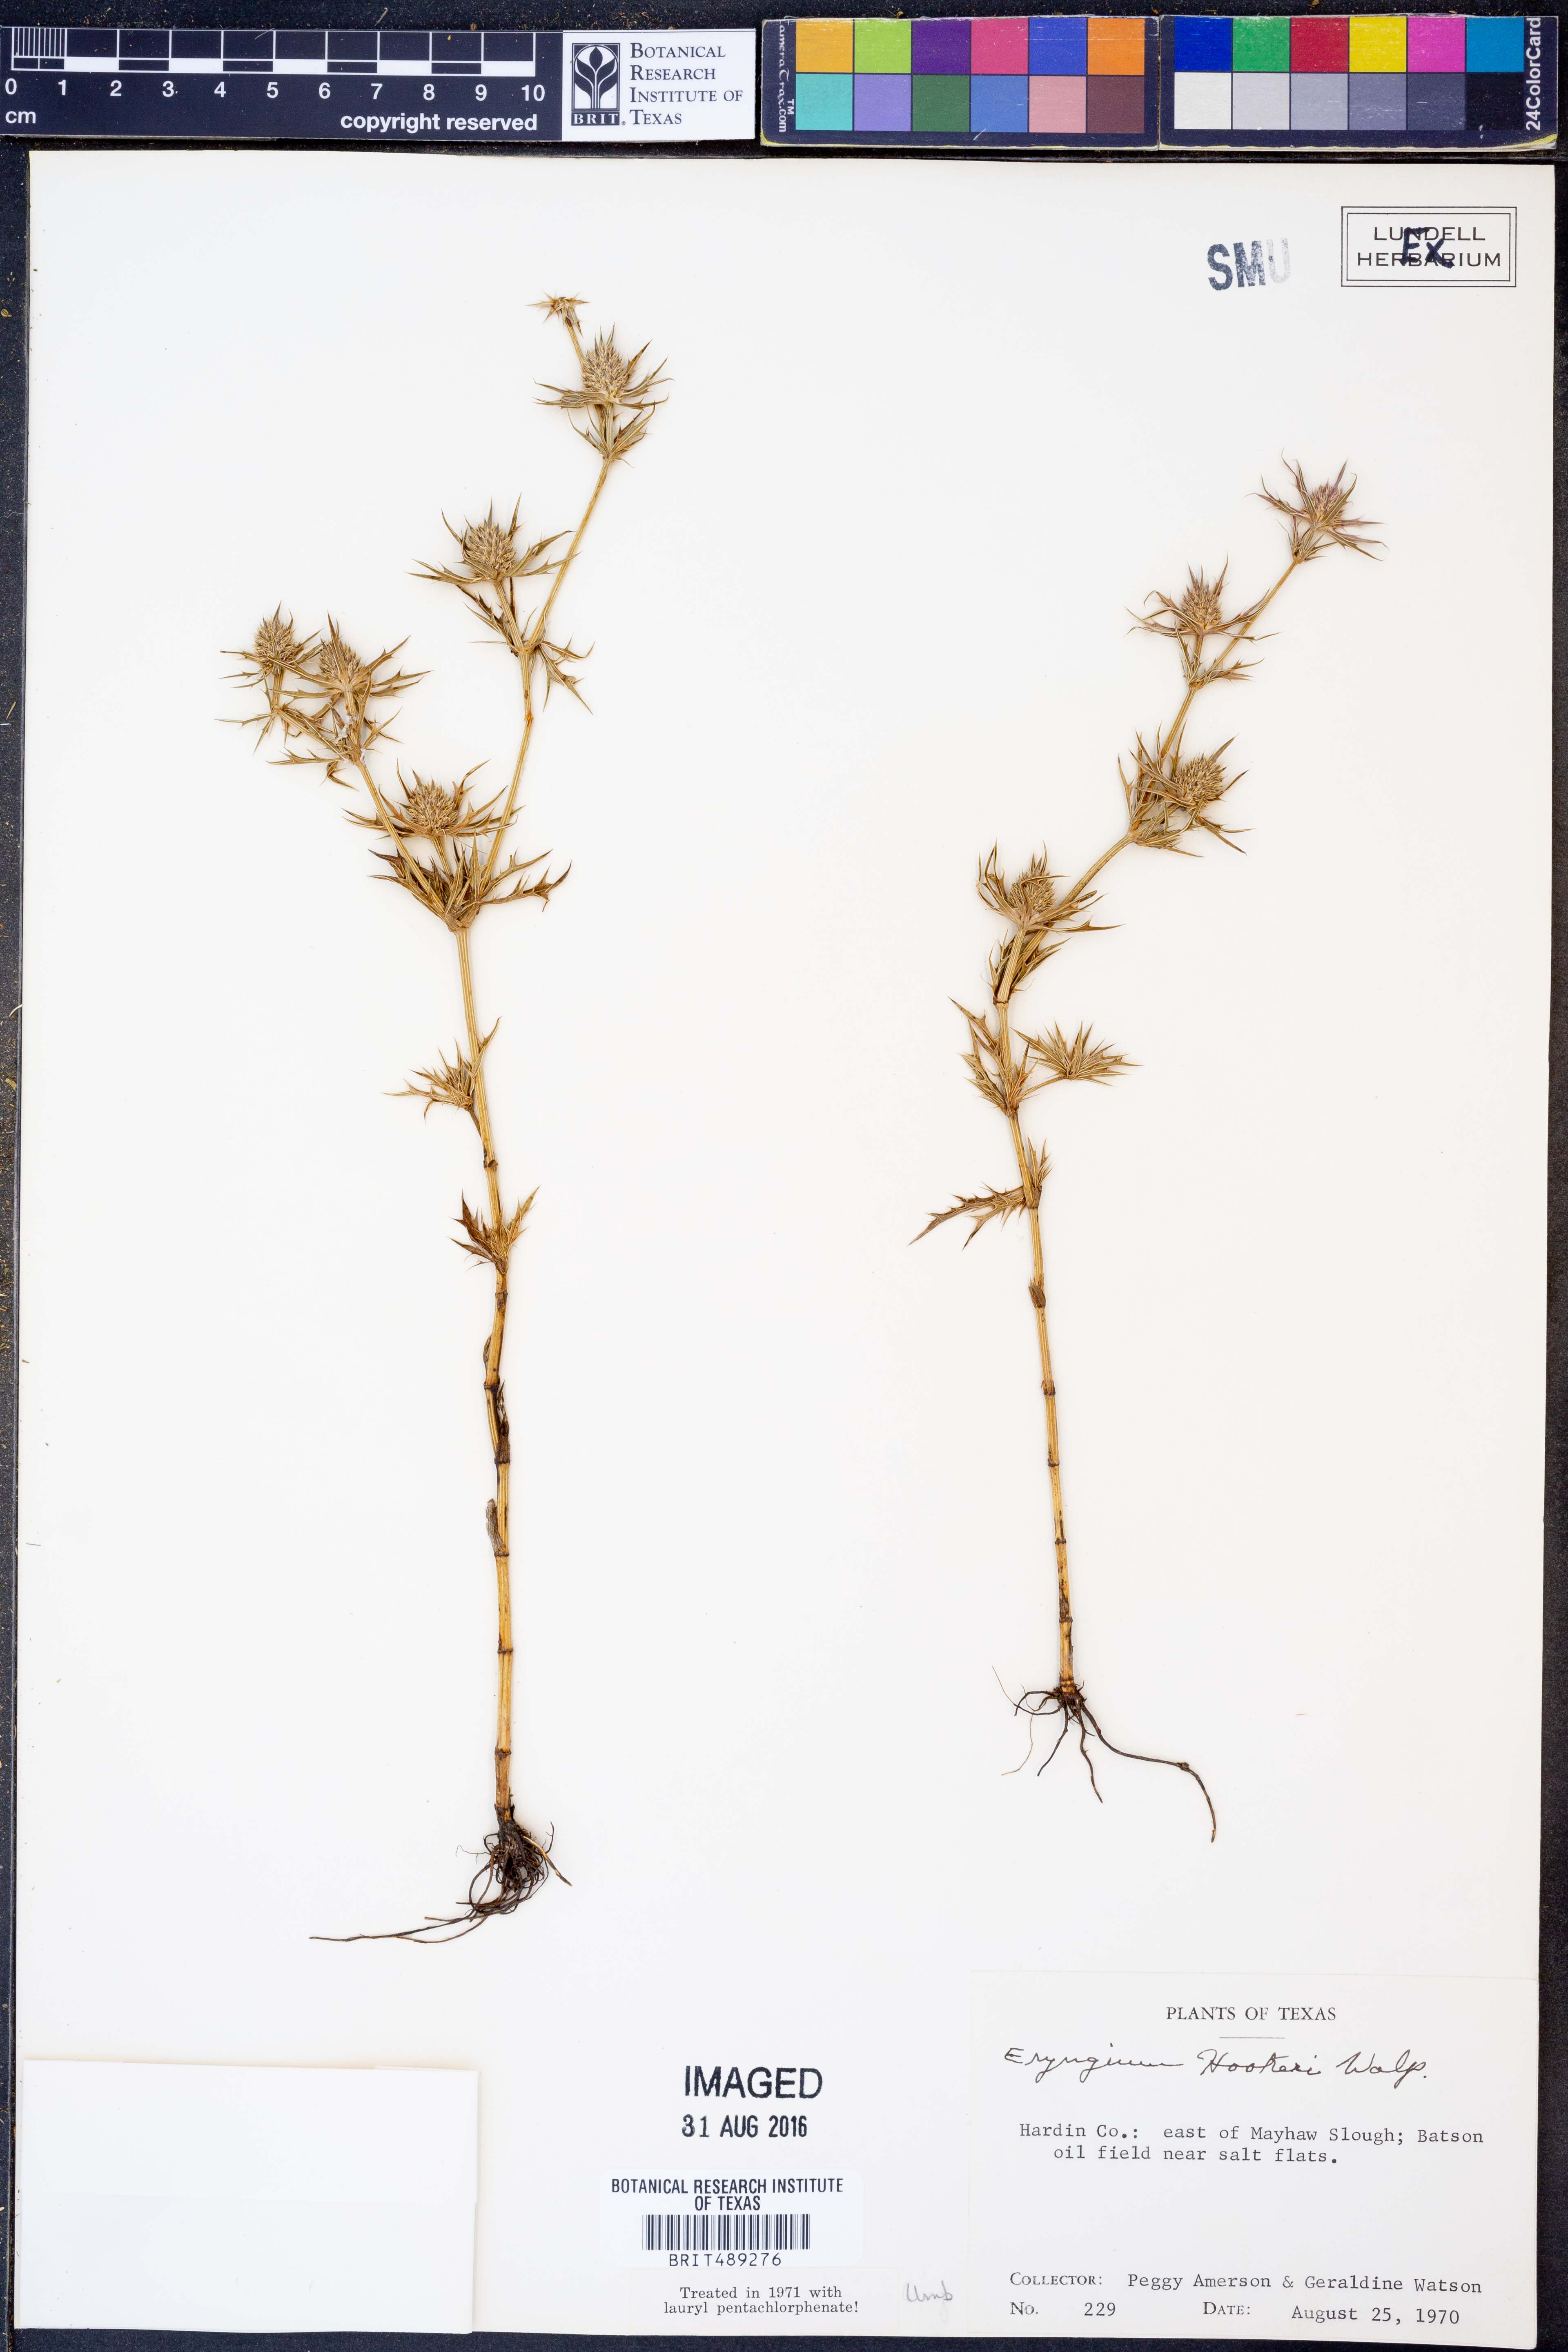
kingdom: Plantae
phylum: Tracheophyta
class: Magnoliopsida
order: Apiales
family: Apiaceae
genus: Eryngium
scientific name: Eryngium hookeri
